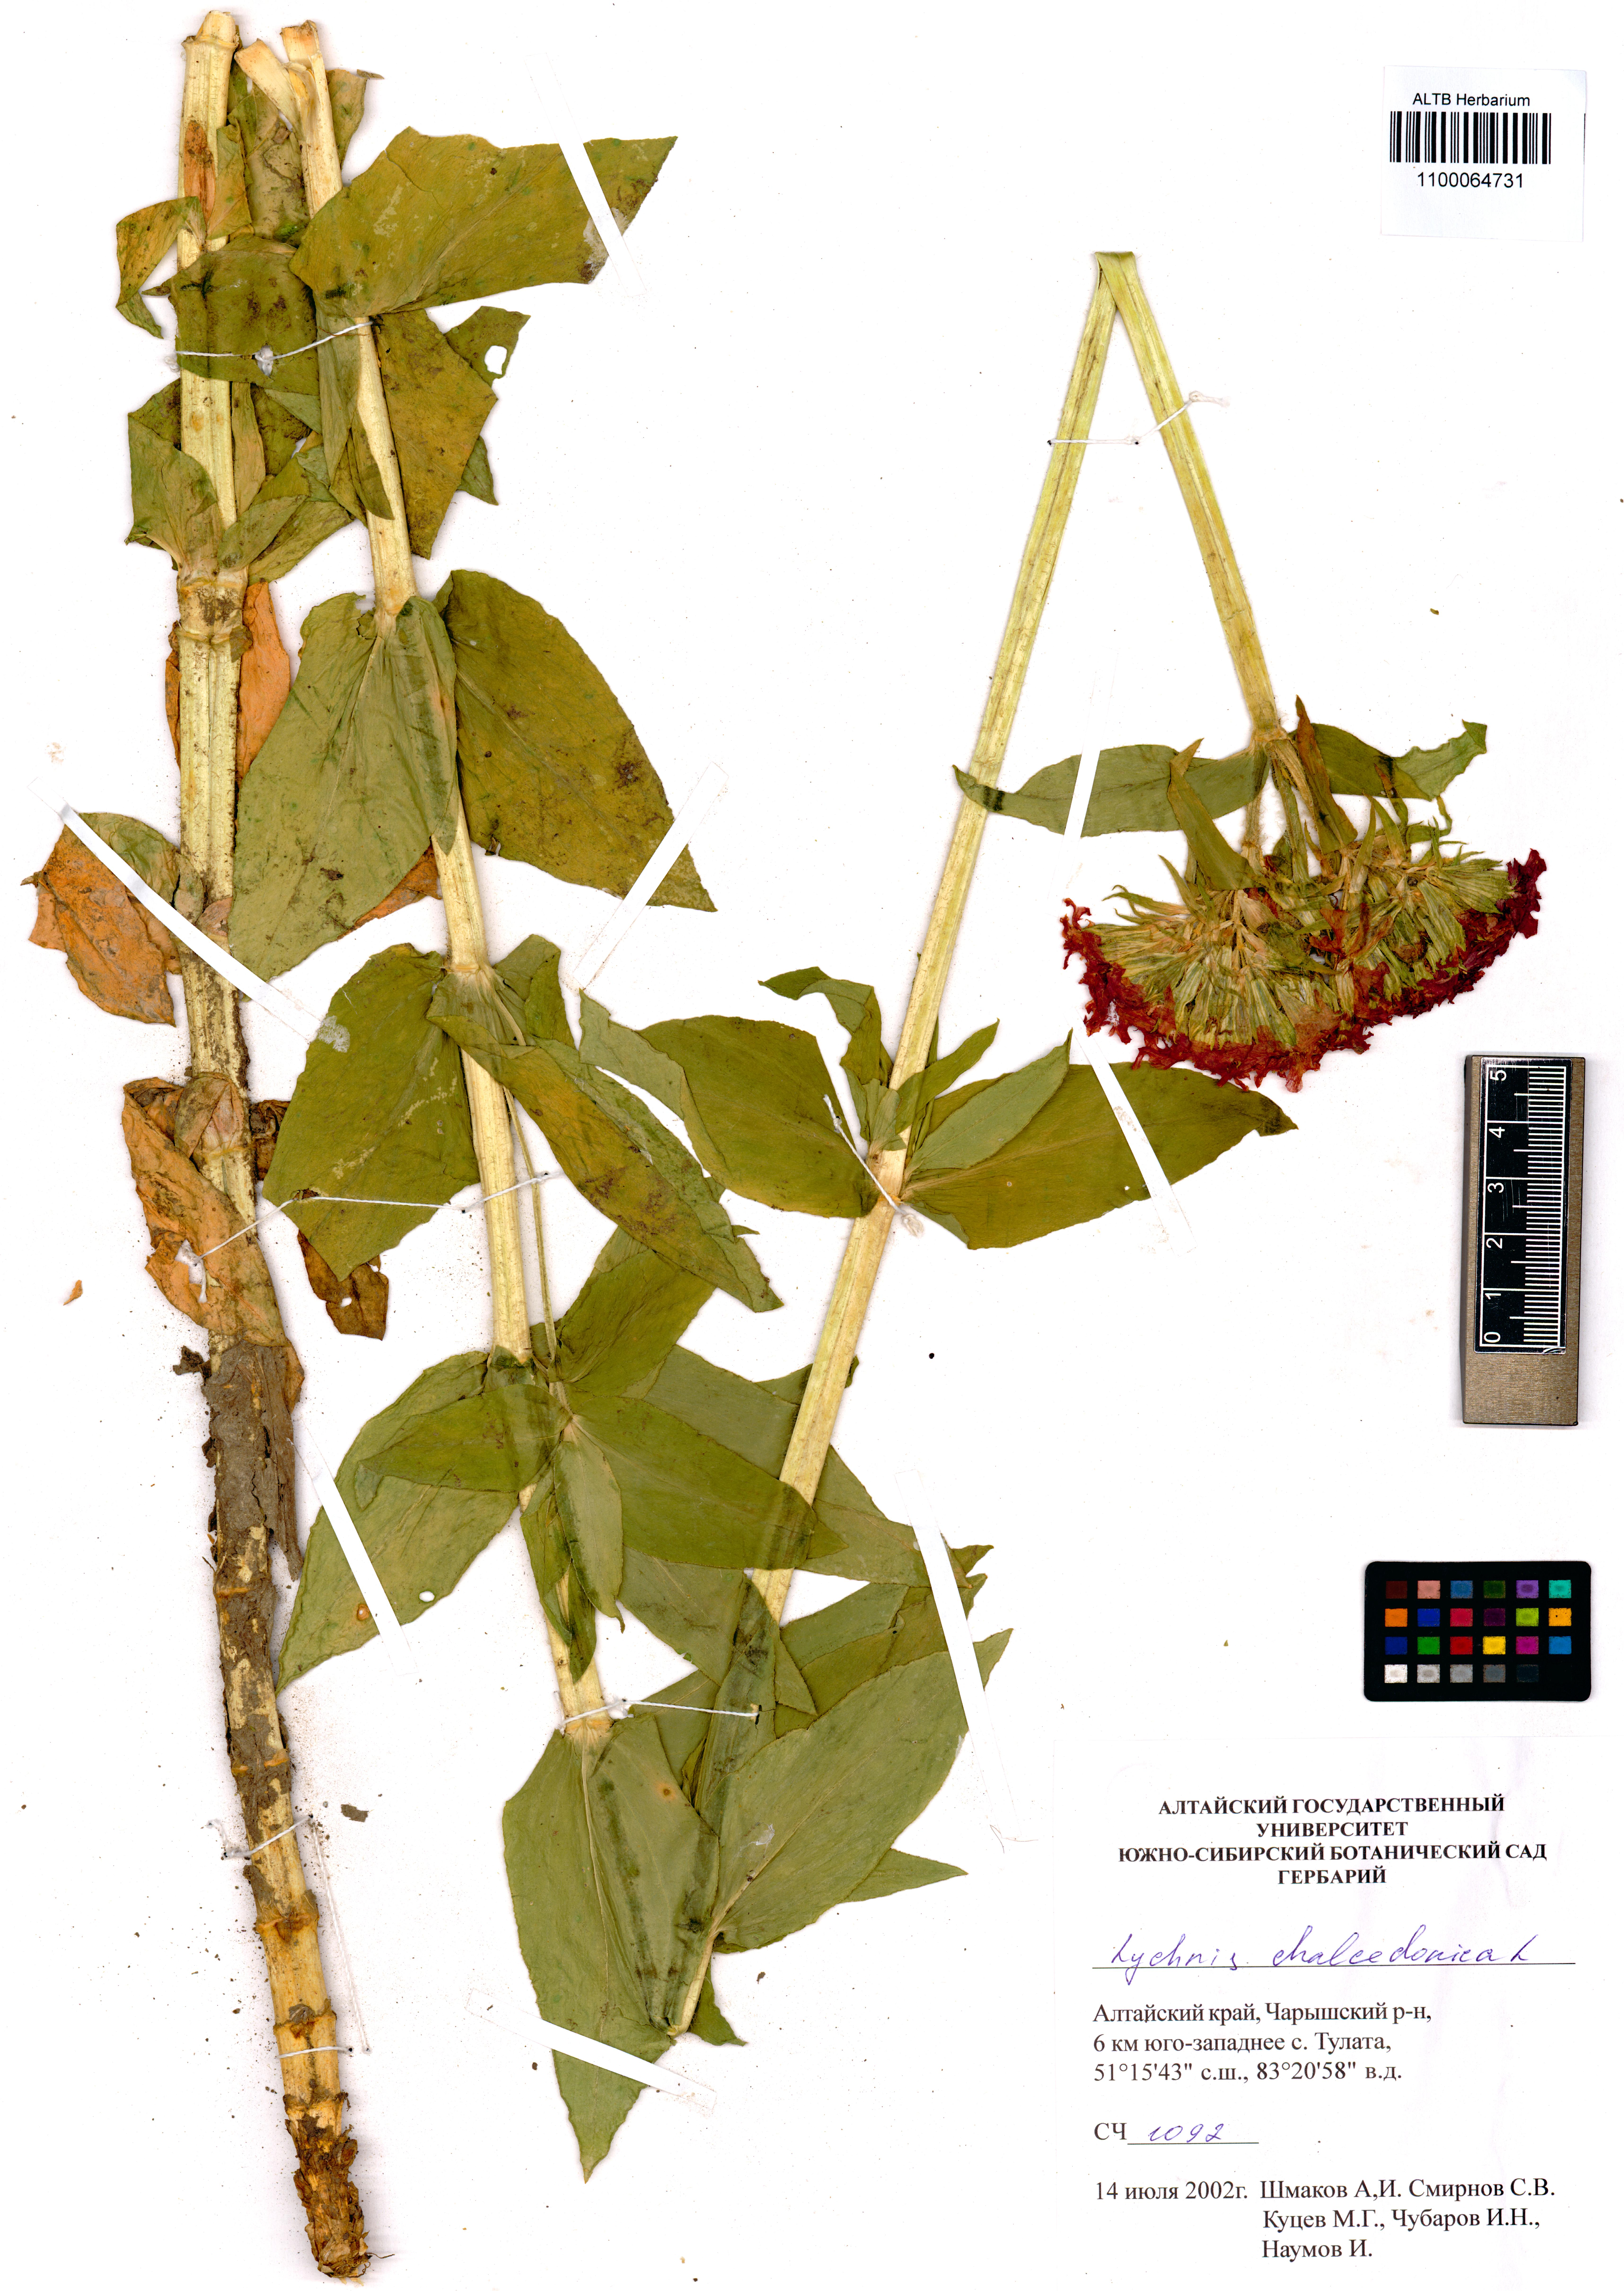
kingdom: Plantae
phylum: Tracheophyta
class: Magnoliopsida
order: Caryophyllales
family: Caryophyllaceae
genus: Silene
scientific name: Silene chalcedonica
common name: Maltese-cross
